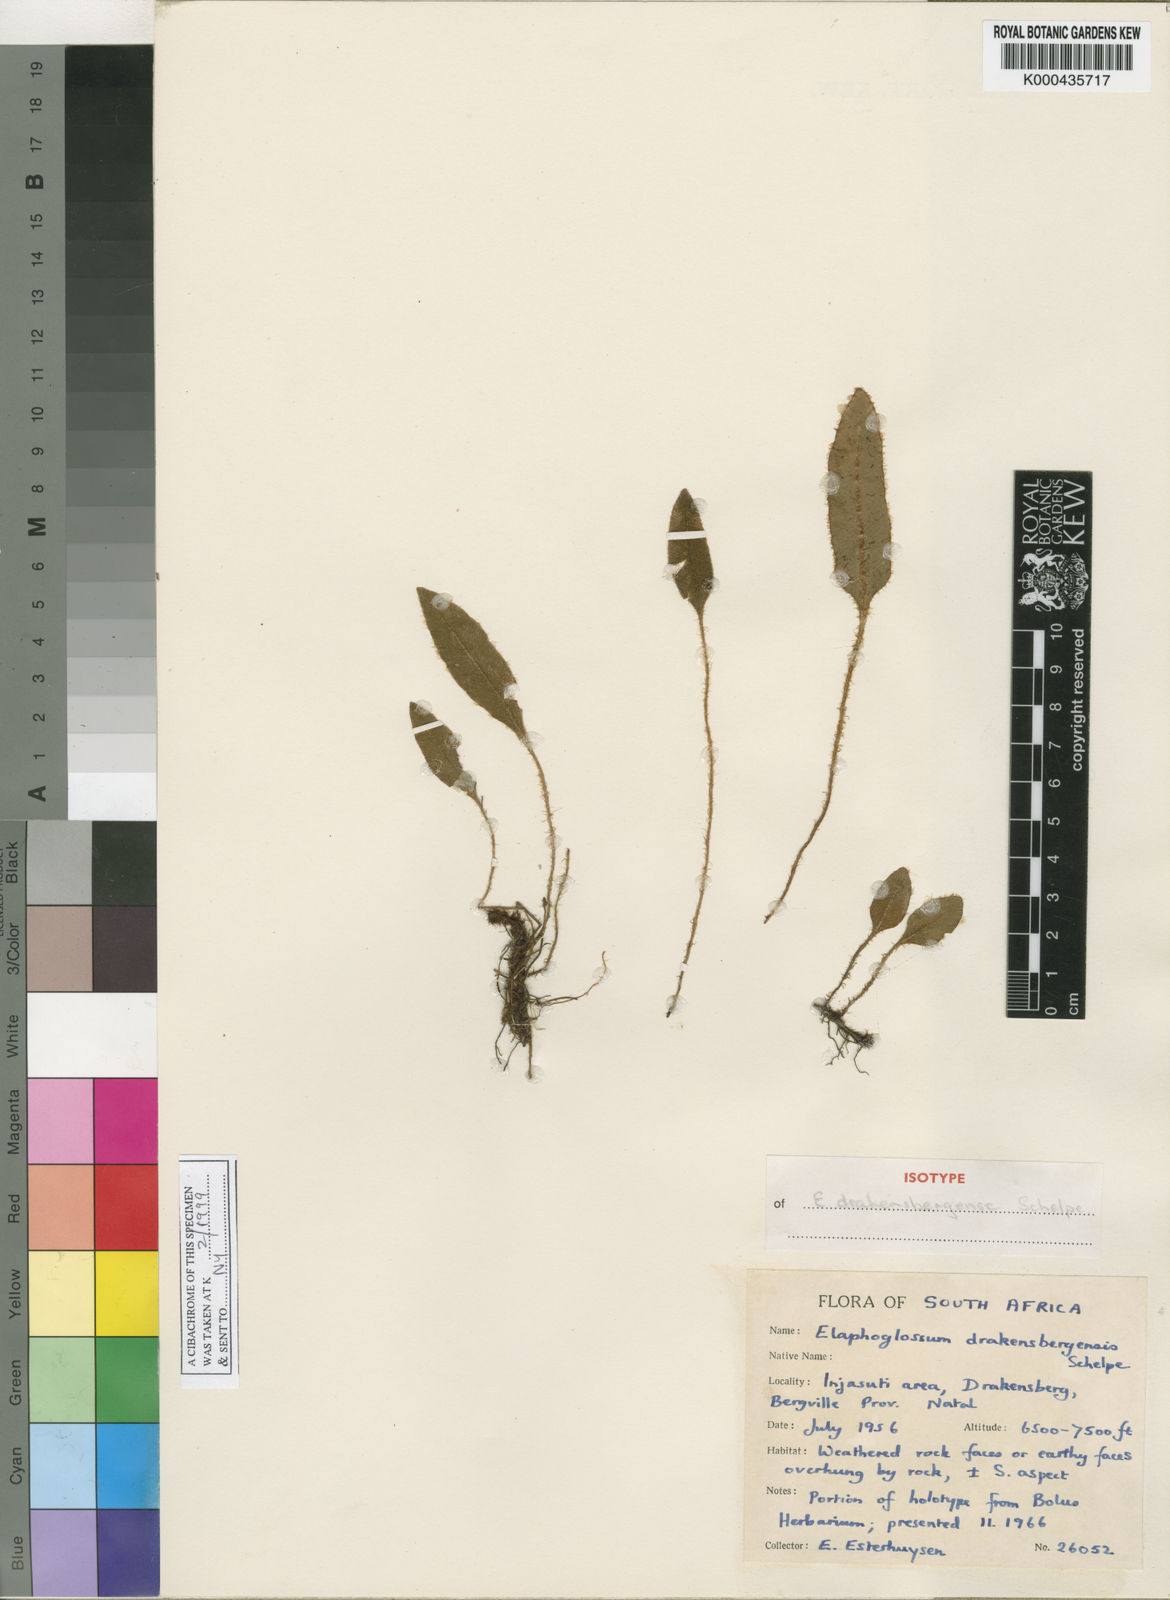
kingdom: Plantae
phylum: Tracheophyta
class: Polypodiopsida
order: Polypodiales
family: Dryopteridaceae
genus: Elaphoglossum
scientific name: Elaphoglossum drakensbergense
